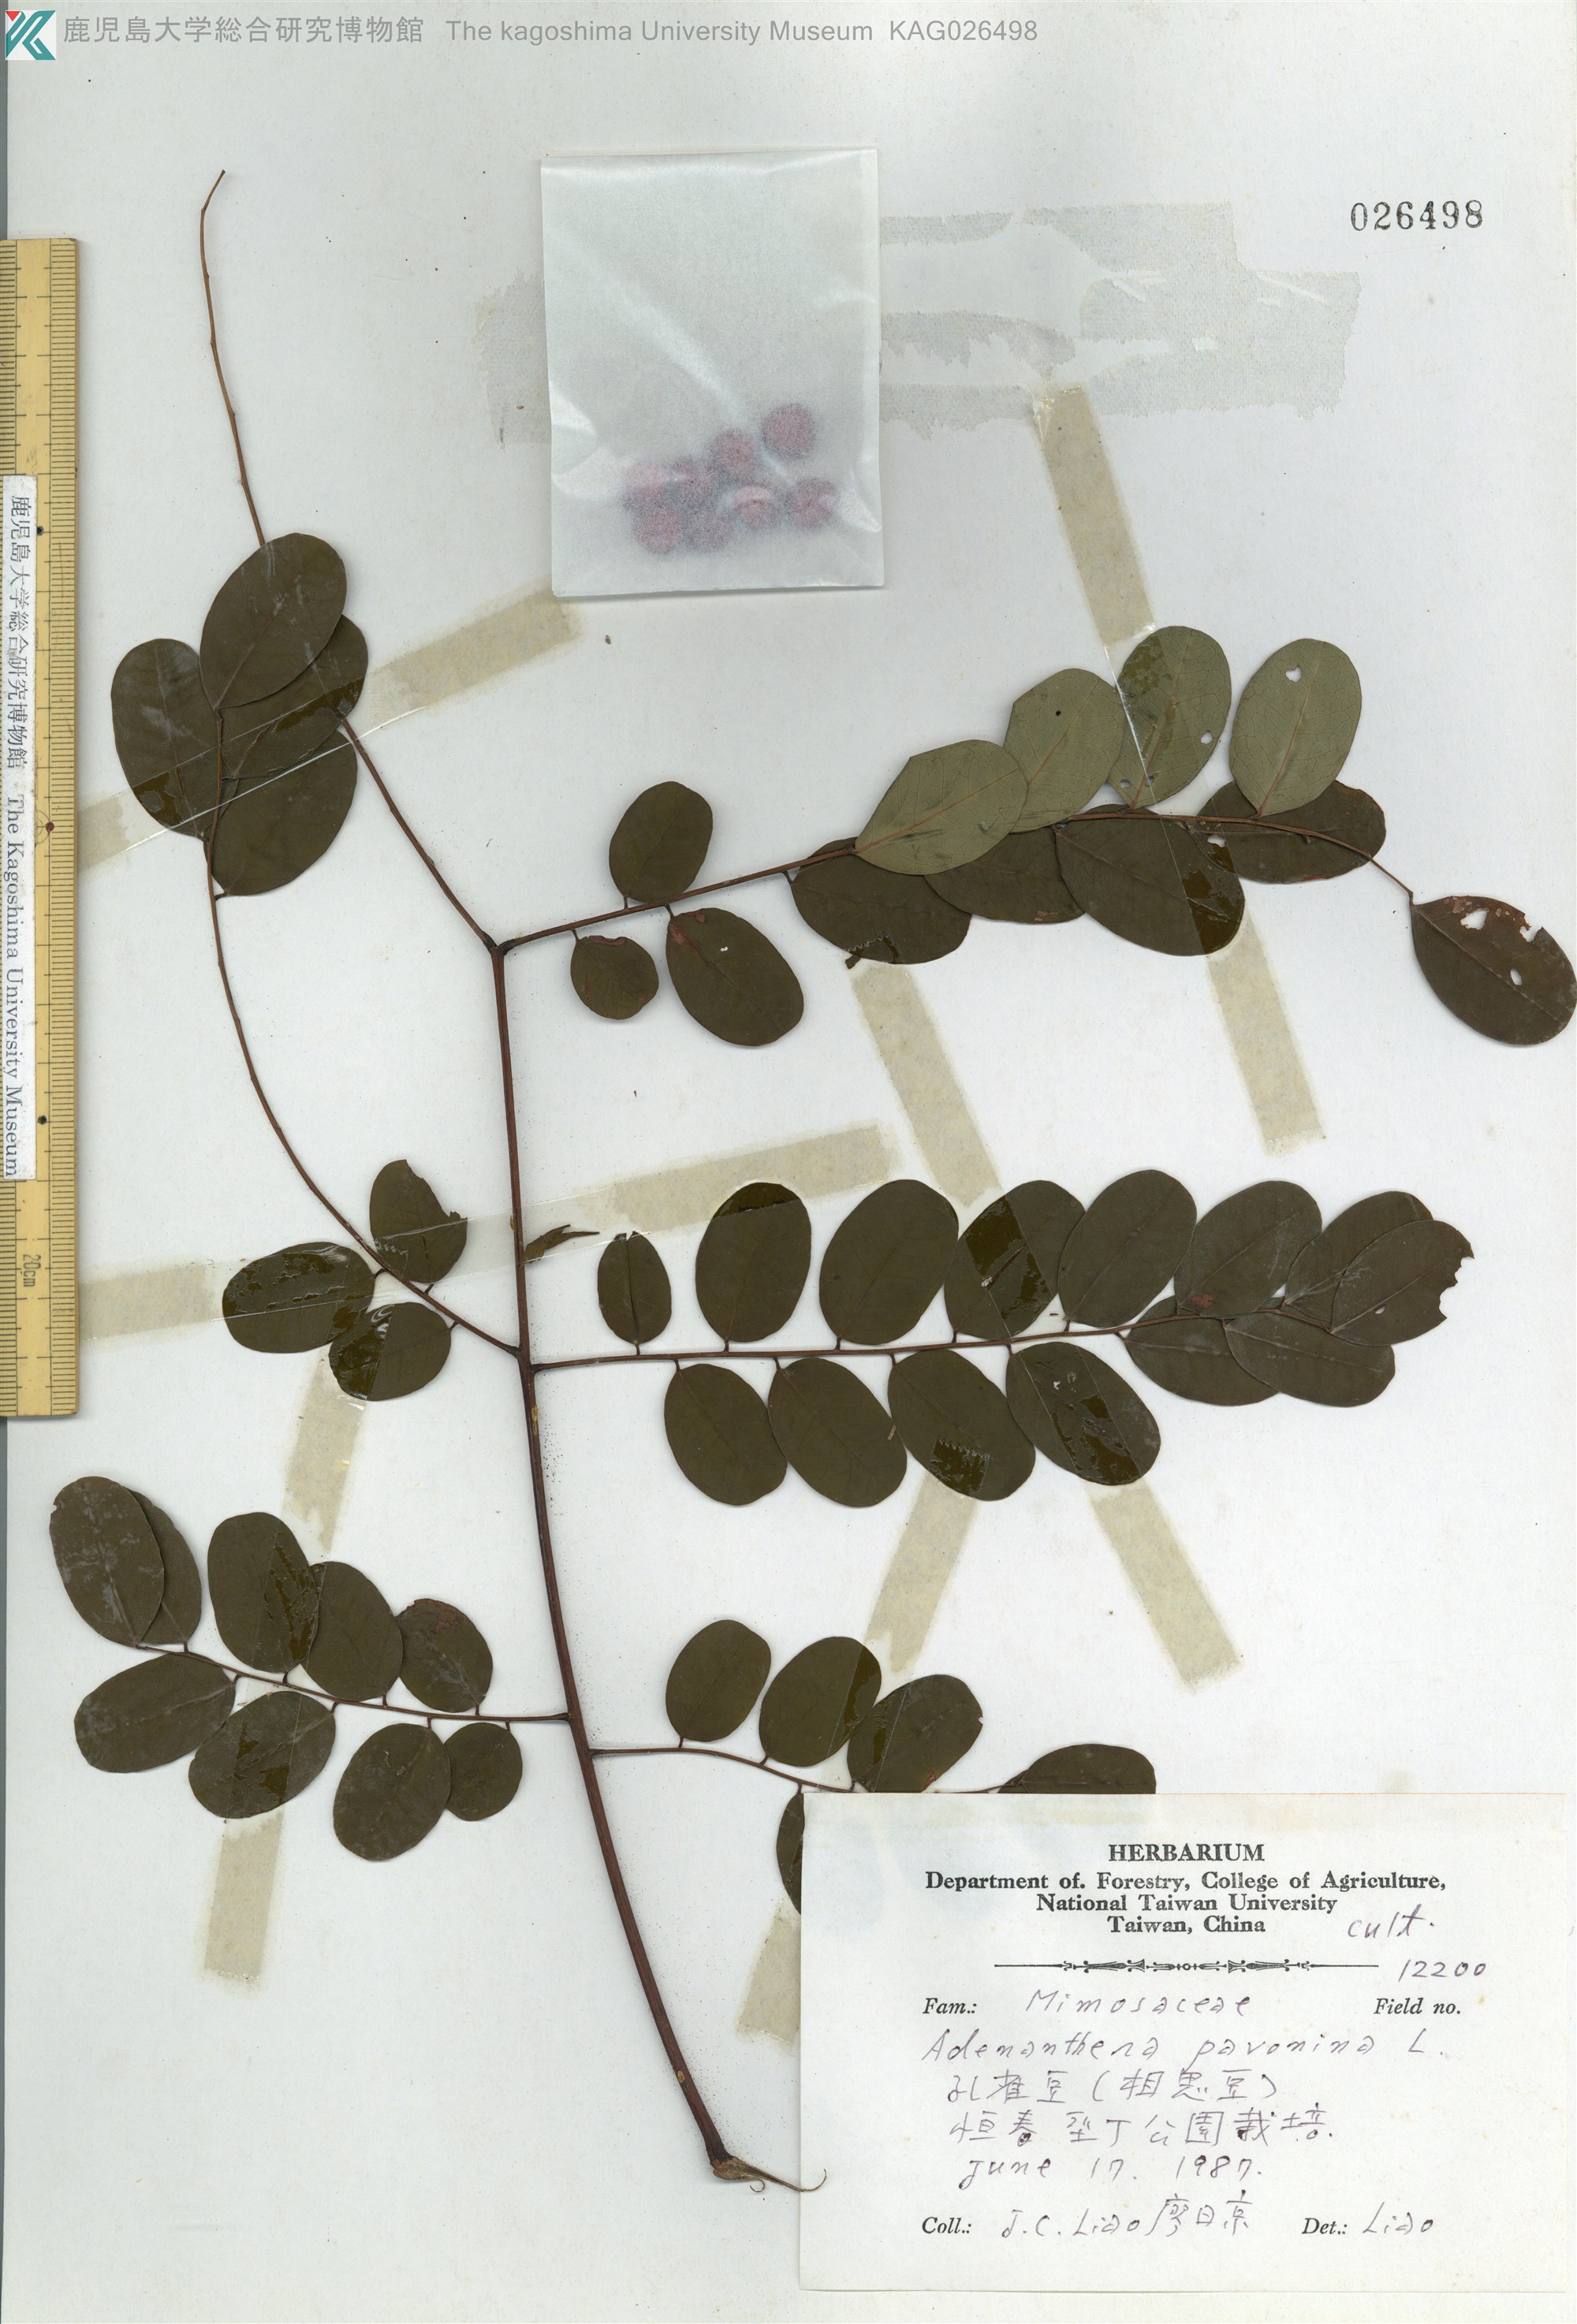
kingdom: Plantae
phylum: Tracheophyta
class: Magnoliopsida
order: Fabales
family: Fabaceae
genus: Adenanthera
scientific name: Adenanthera pavonina
